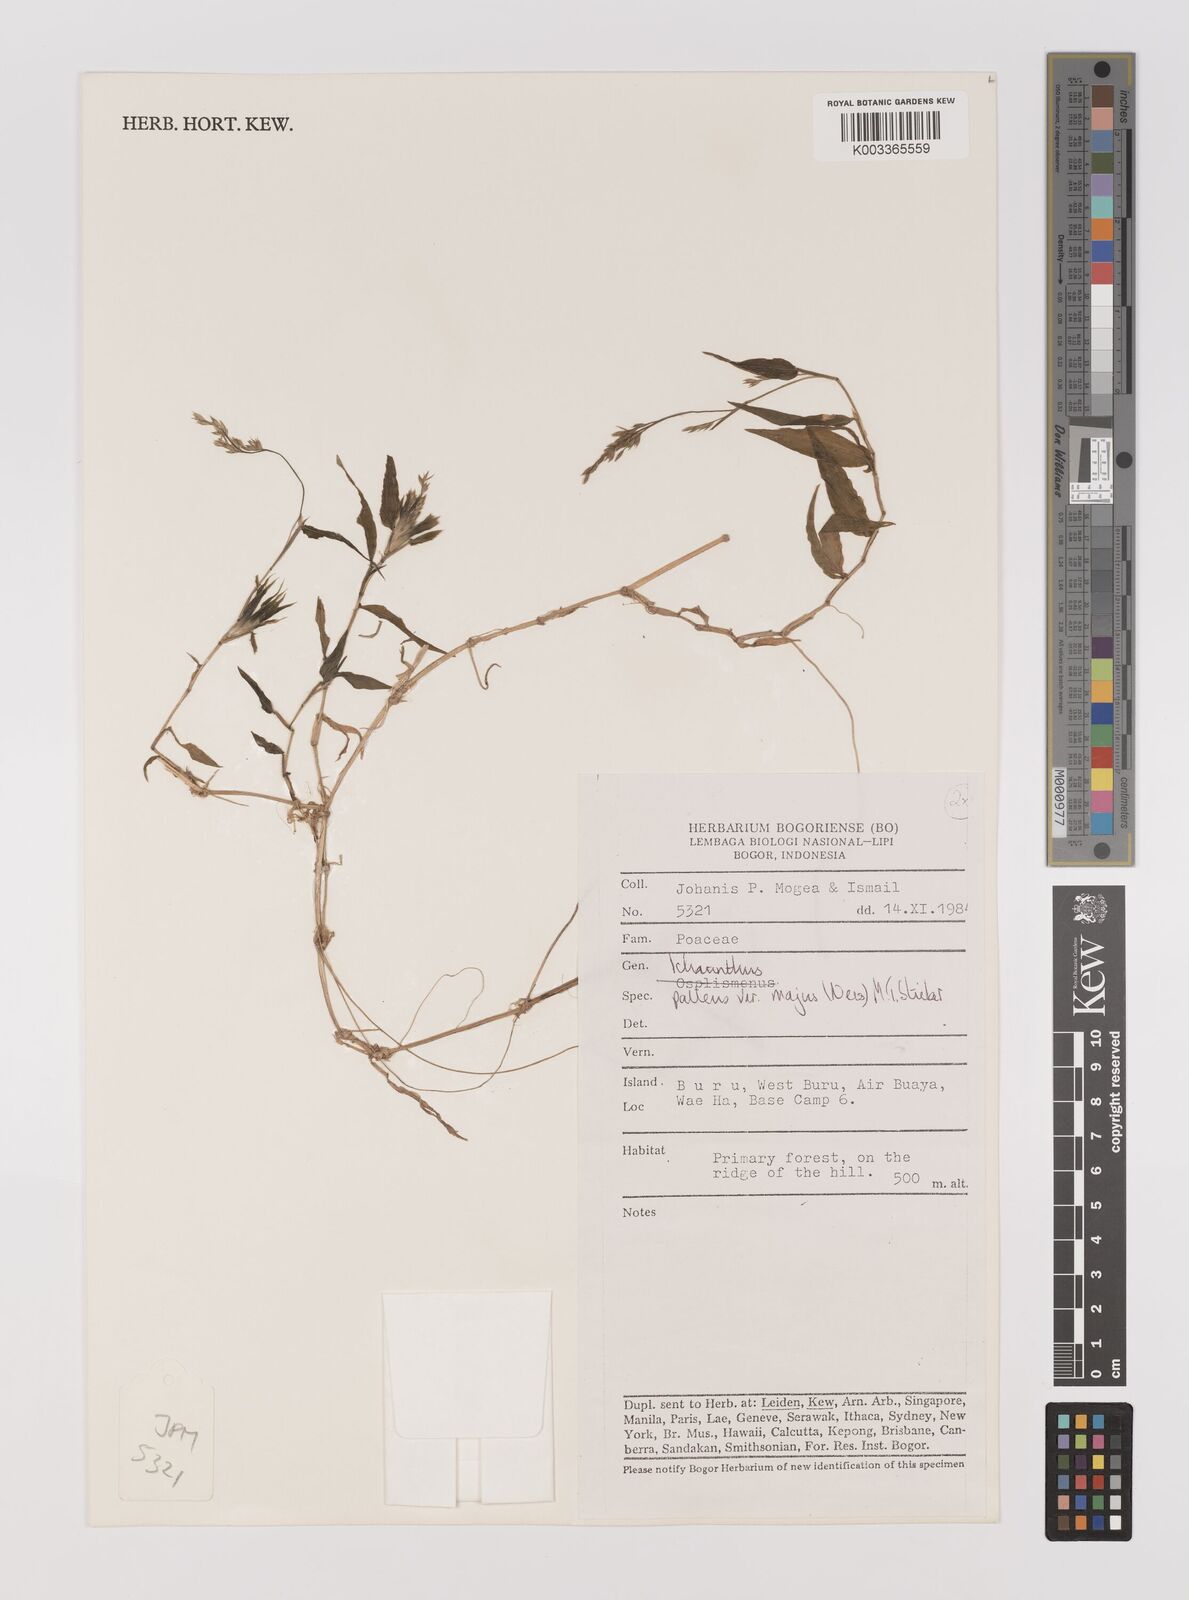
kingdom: Plantae
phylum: Tracheophyta
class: Liliopsida
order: Poales
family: Poaceae
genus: Ichnanthus
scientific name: Ichnanthus pallens
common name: Water grass
